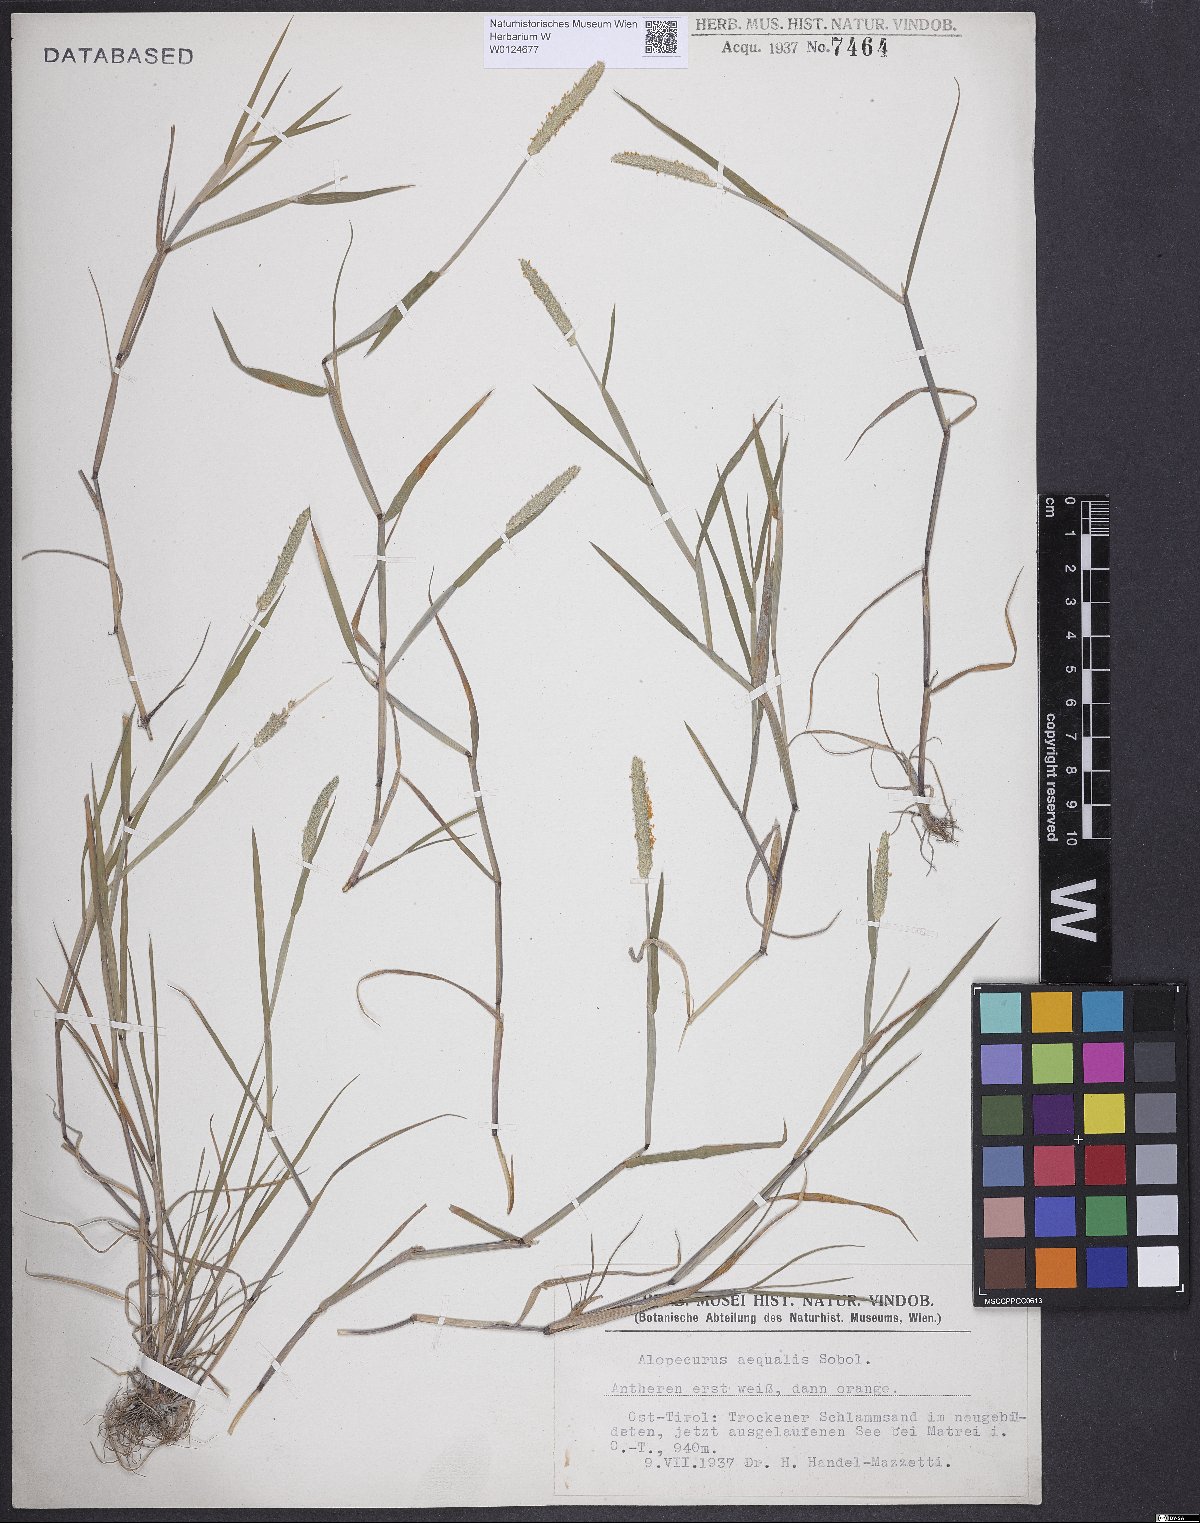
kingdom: Plantae
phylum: Tracheophyta
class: Liliopsida
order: Poales
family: Poaceae
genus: Alopecurus
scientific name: Alopecurus aequalis
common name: Orange foxtail
